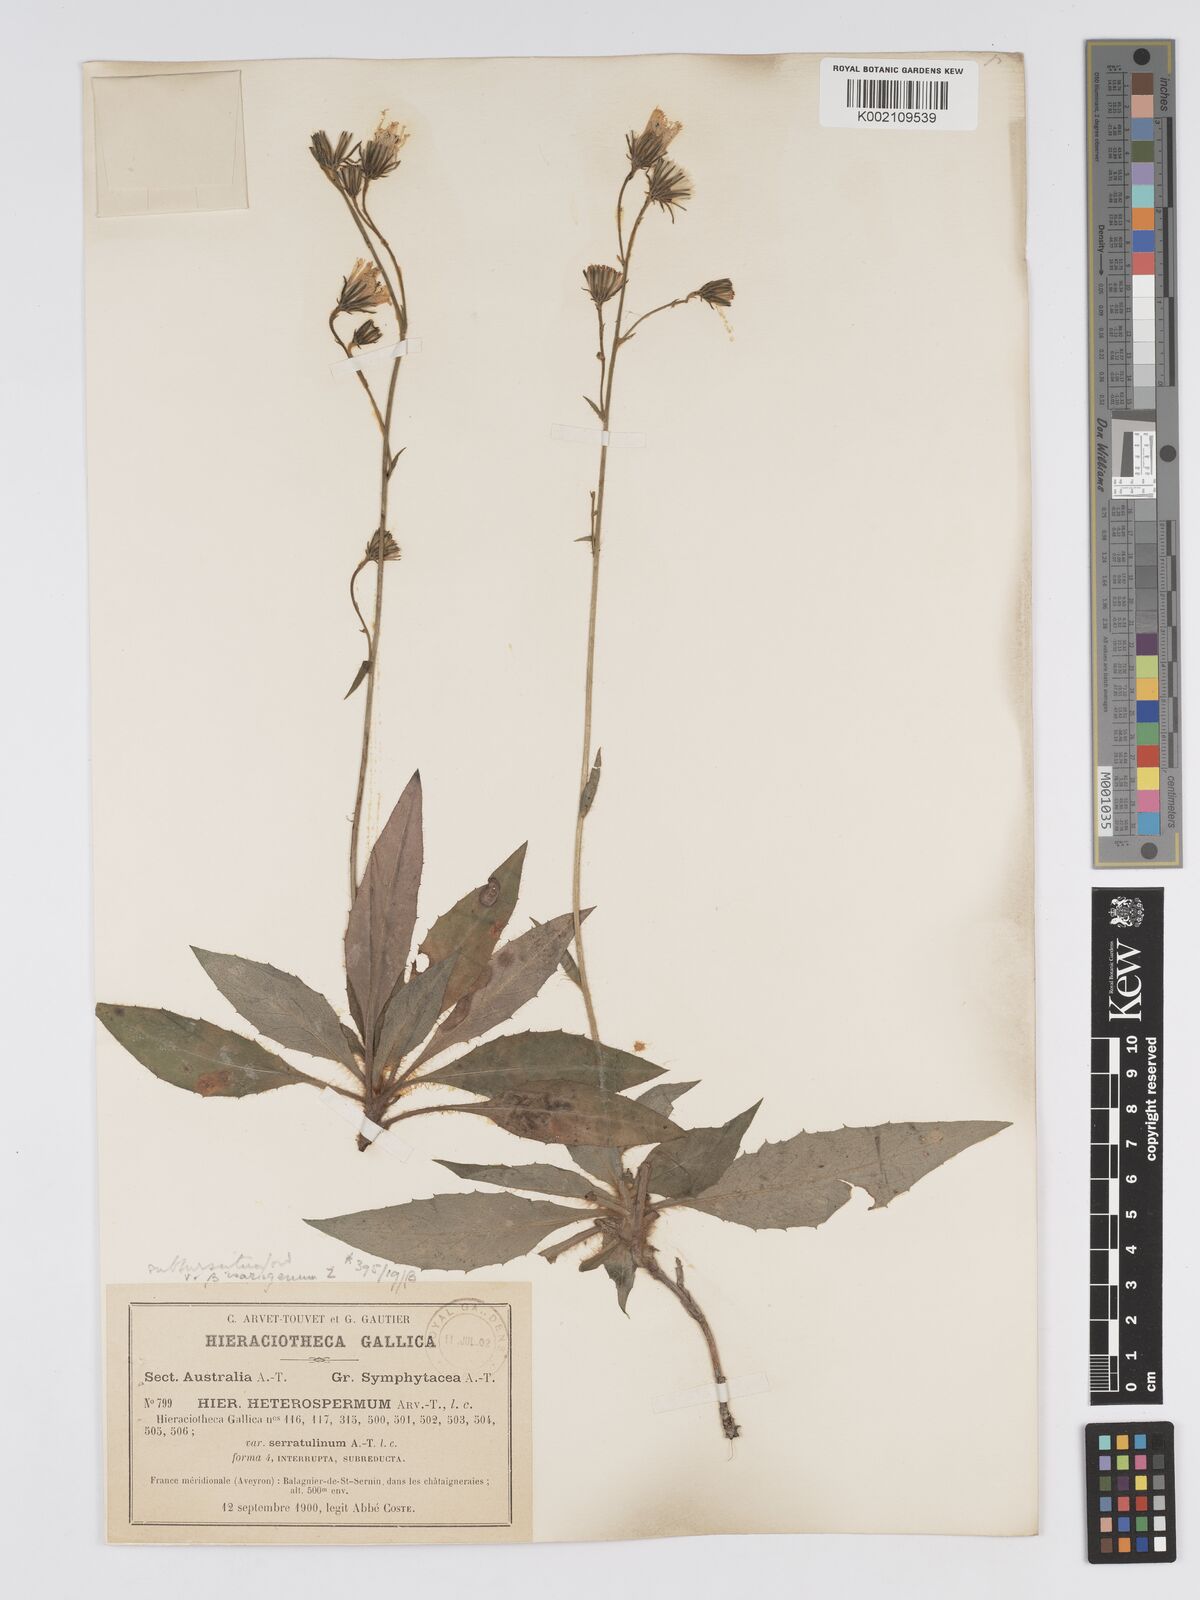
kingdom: Plantae
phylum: Tracheophyta
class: Magnoliopsida
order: Asterales
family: Asteraceae
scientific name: Asteraceae
